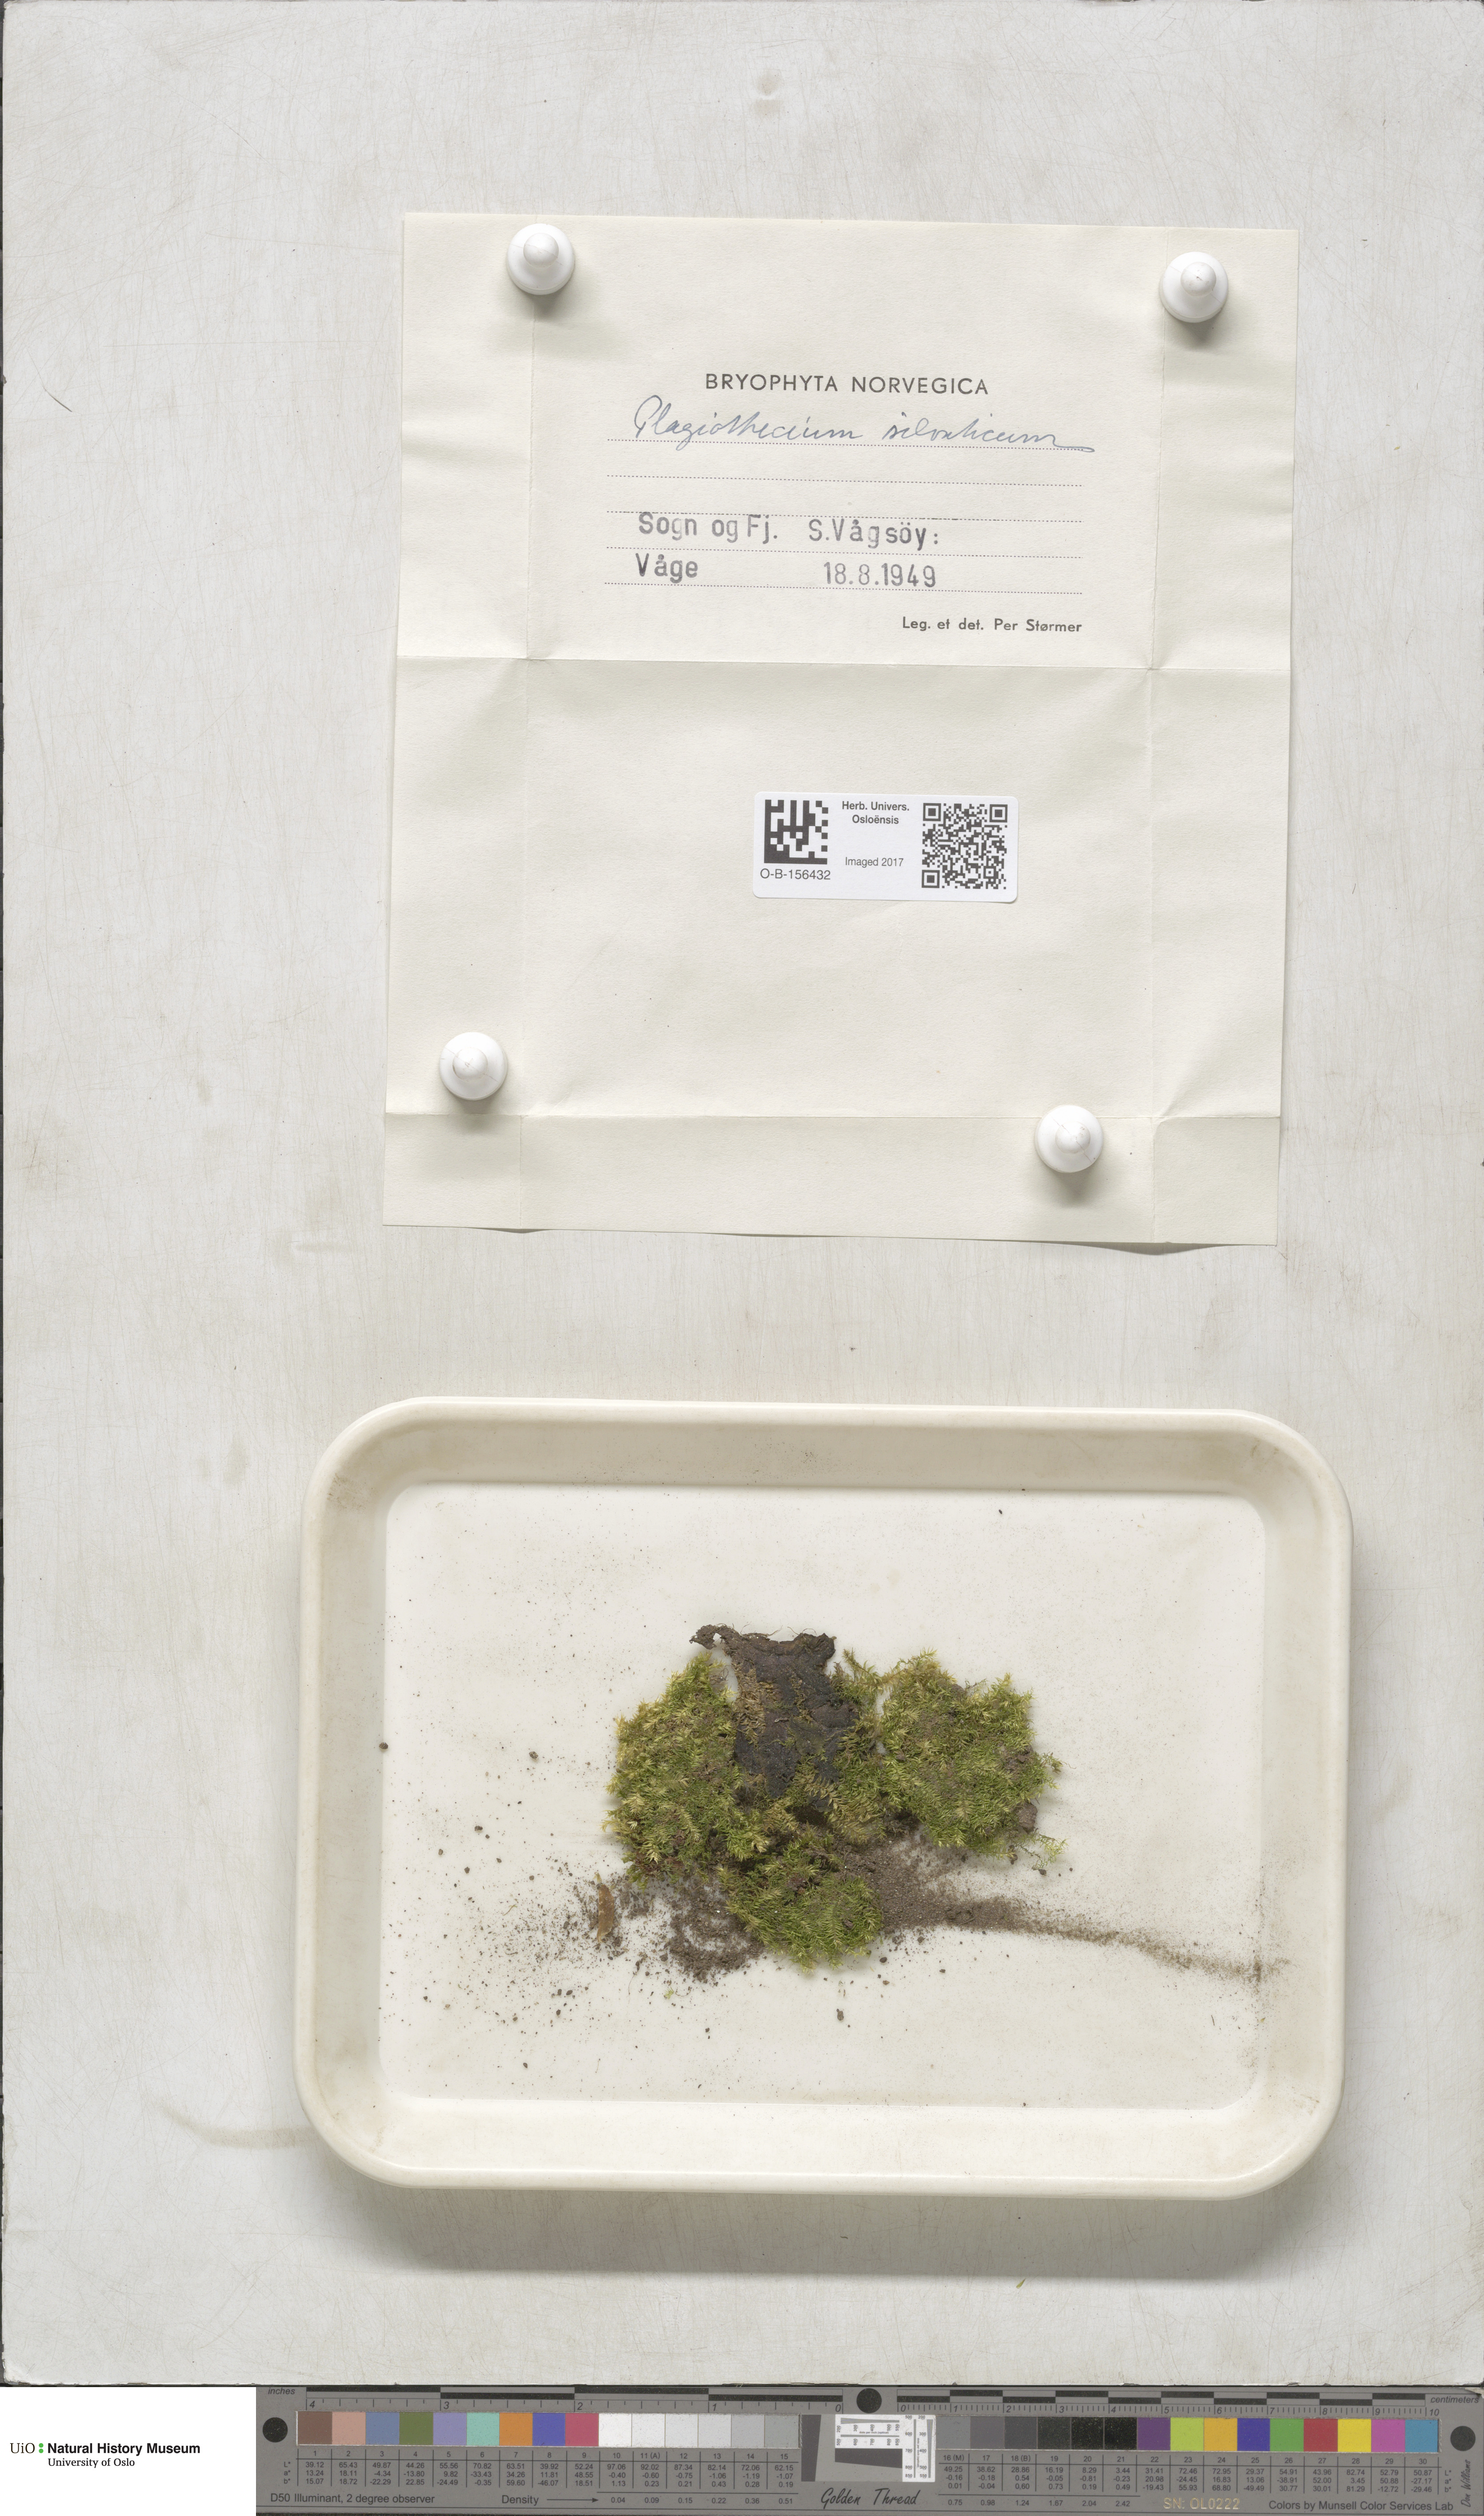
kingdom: Plantae
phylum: Bryophyta
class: Bryopsida
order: Hypnales
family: Plagiotheciaceae
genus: Plagiothecium
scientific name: Plagiothecium nemorale
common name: Woodsy silk-moss
